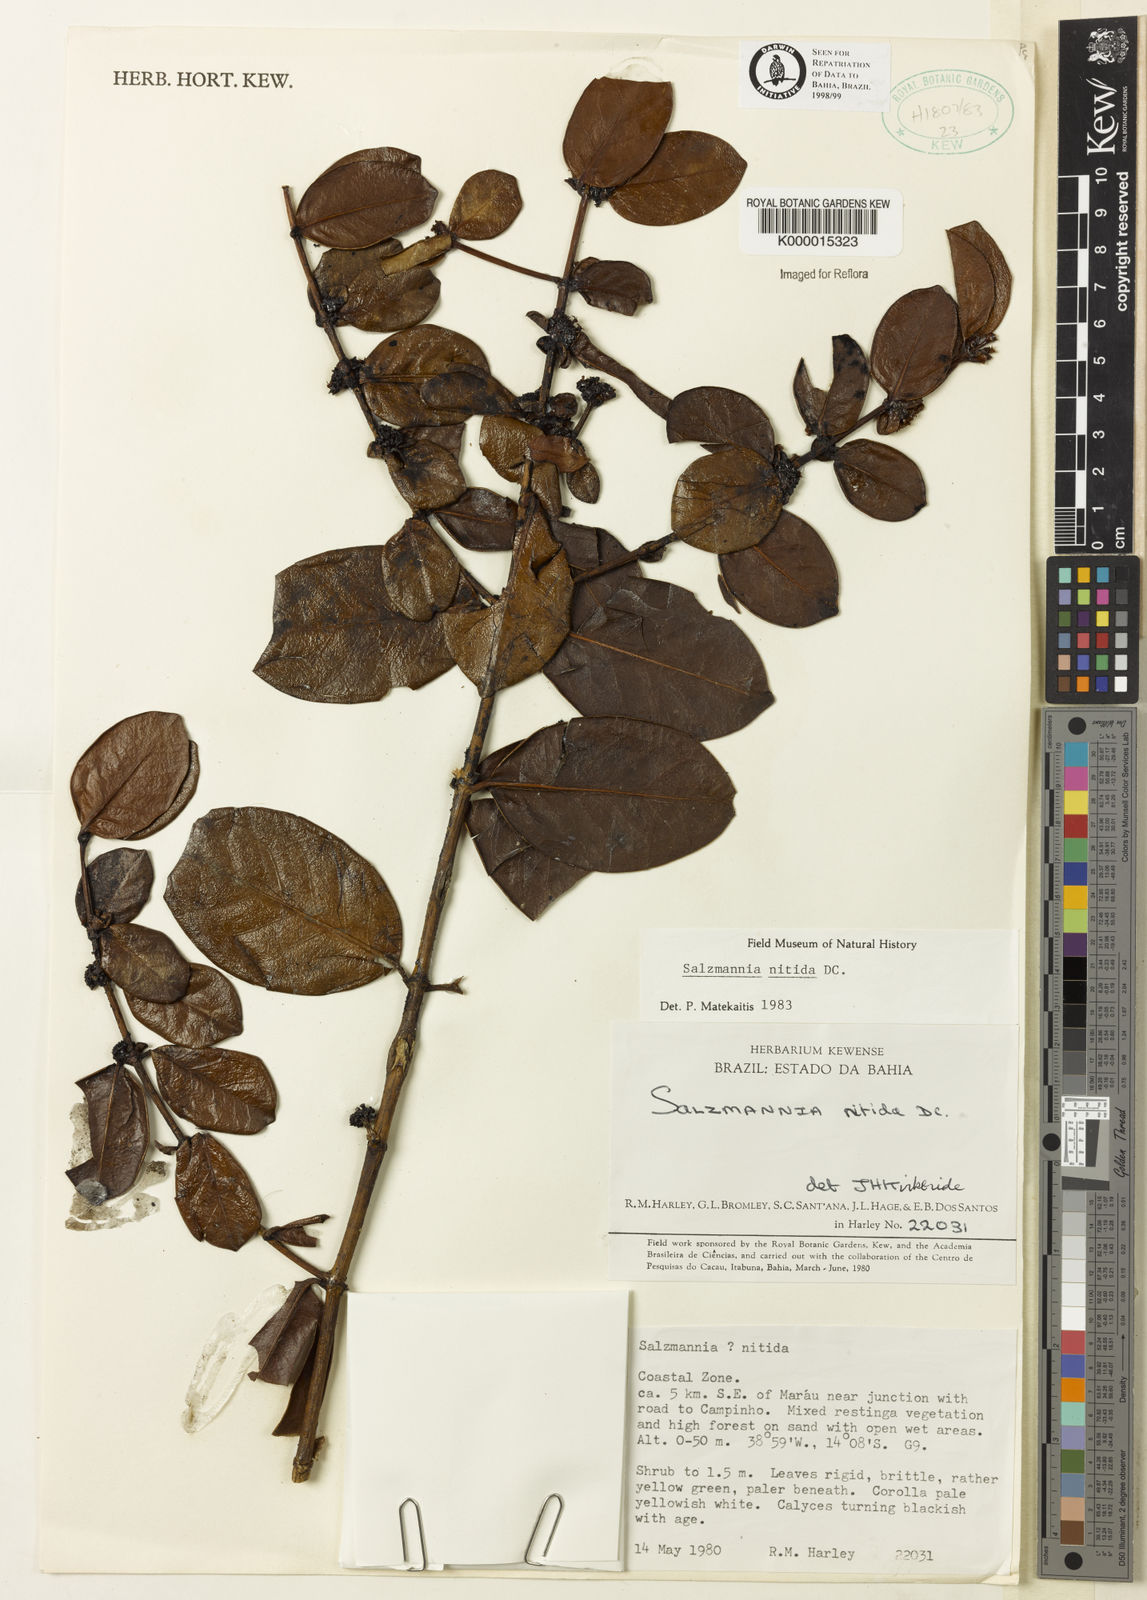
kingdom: Plantae
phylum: Tracheophyta
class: Magnoliopsida
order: Gentianales
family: Rubiaceae
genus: Salzmannia
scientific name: Salzmannia nitida
